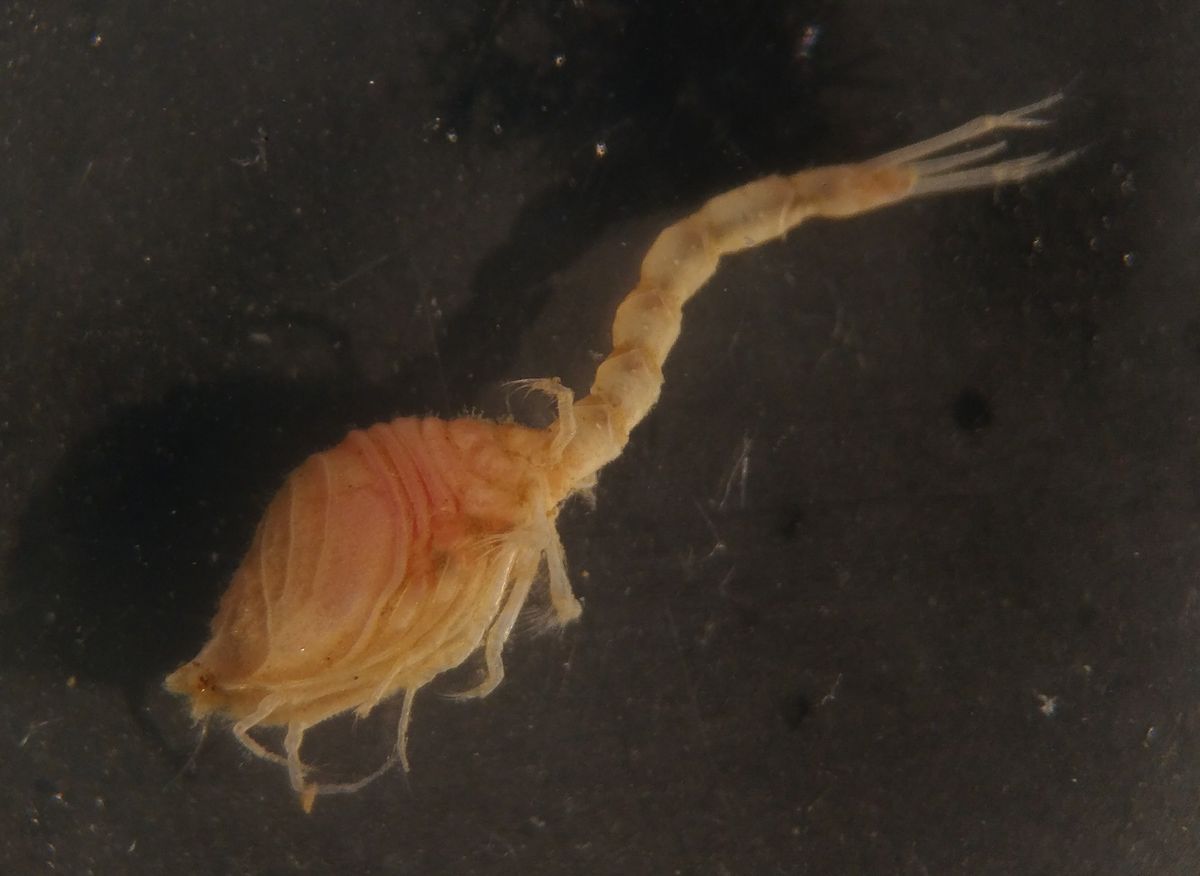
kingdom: Animalia
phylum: Arthropoda
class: Malacostraca
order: Cumacea
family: Diastylidae
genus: Diastylis
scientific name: Diastylis scorpioides
